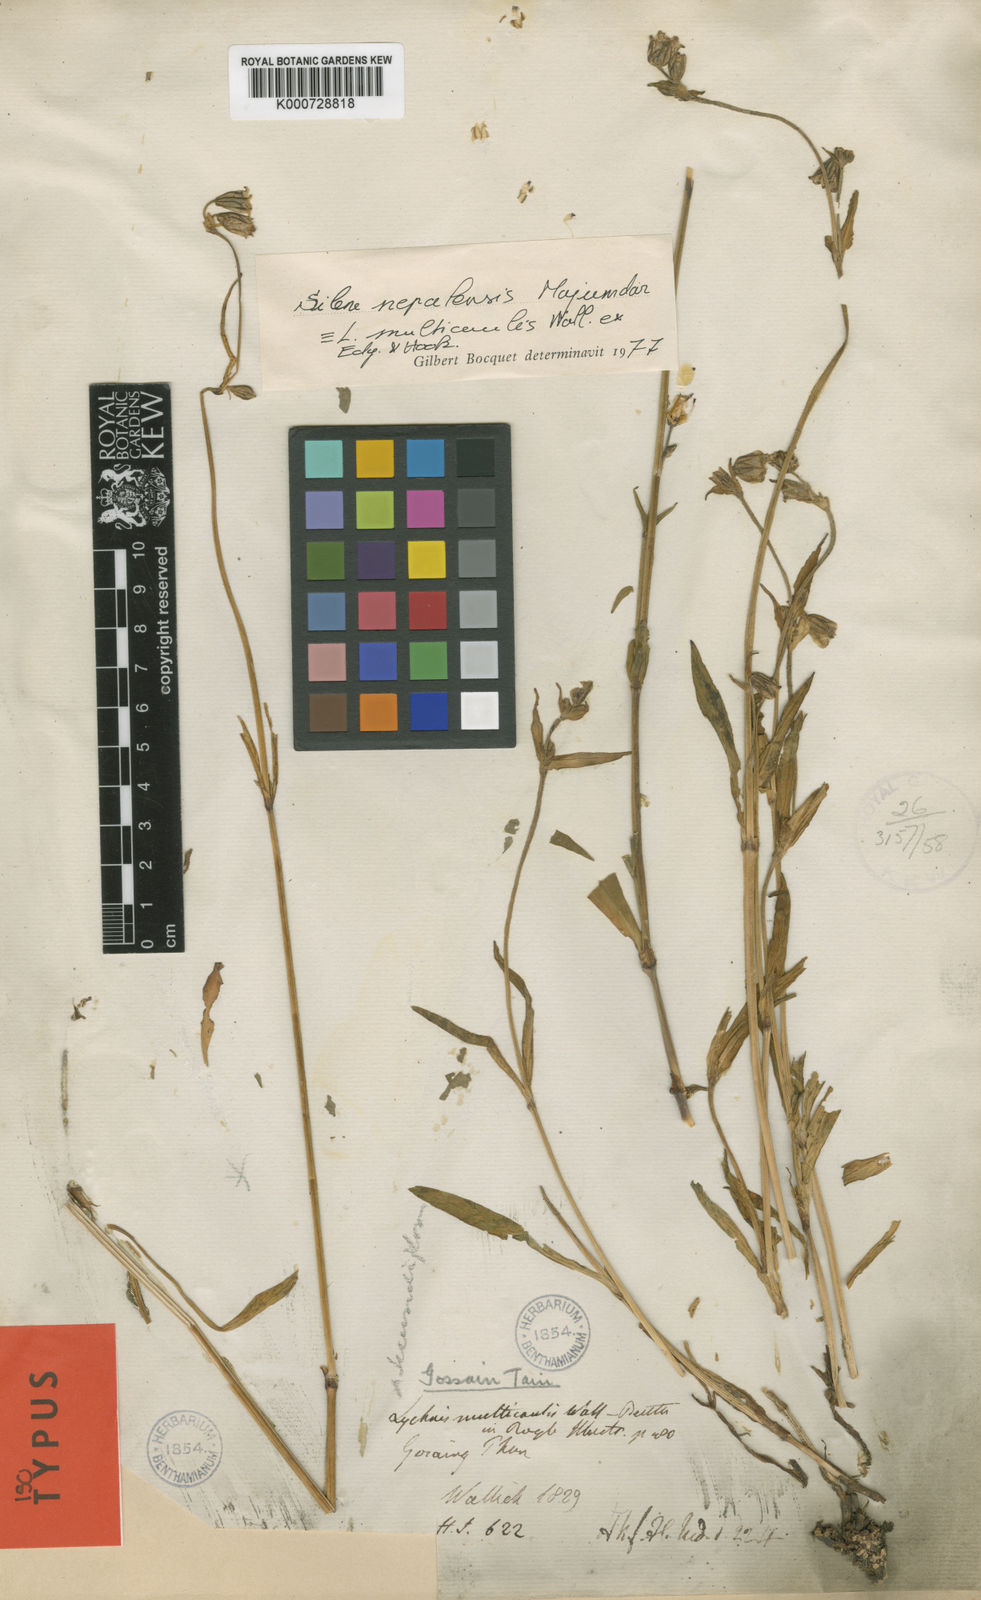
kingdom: Plantae
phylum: Tracheophyta
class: Magnoliopsida
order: Caryophyllales
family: Caryophyllaceae
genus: Silene
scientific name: Silene nepalensis
